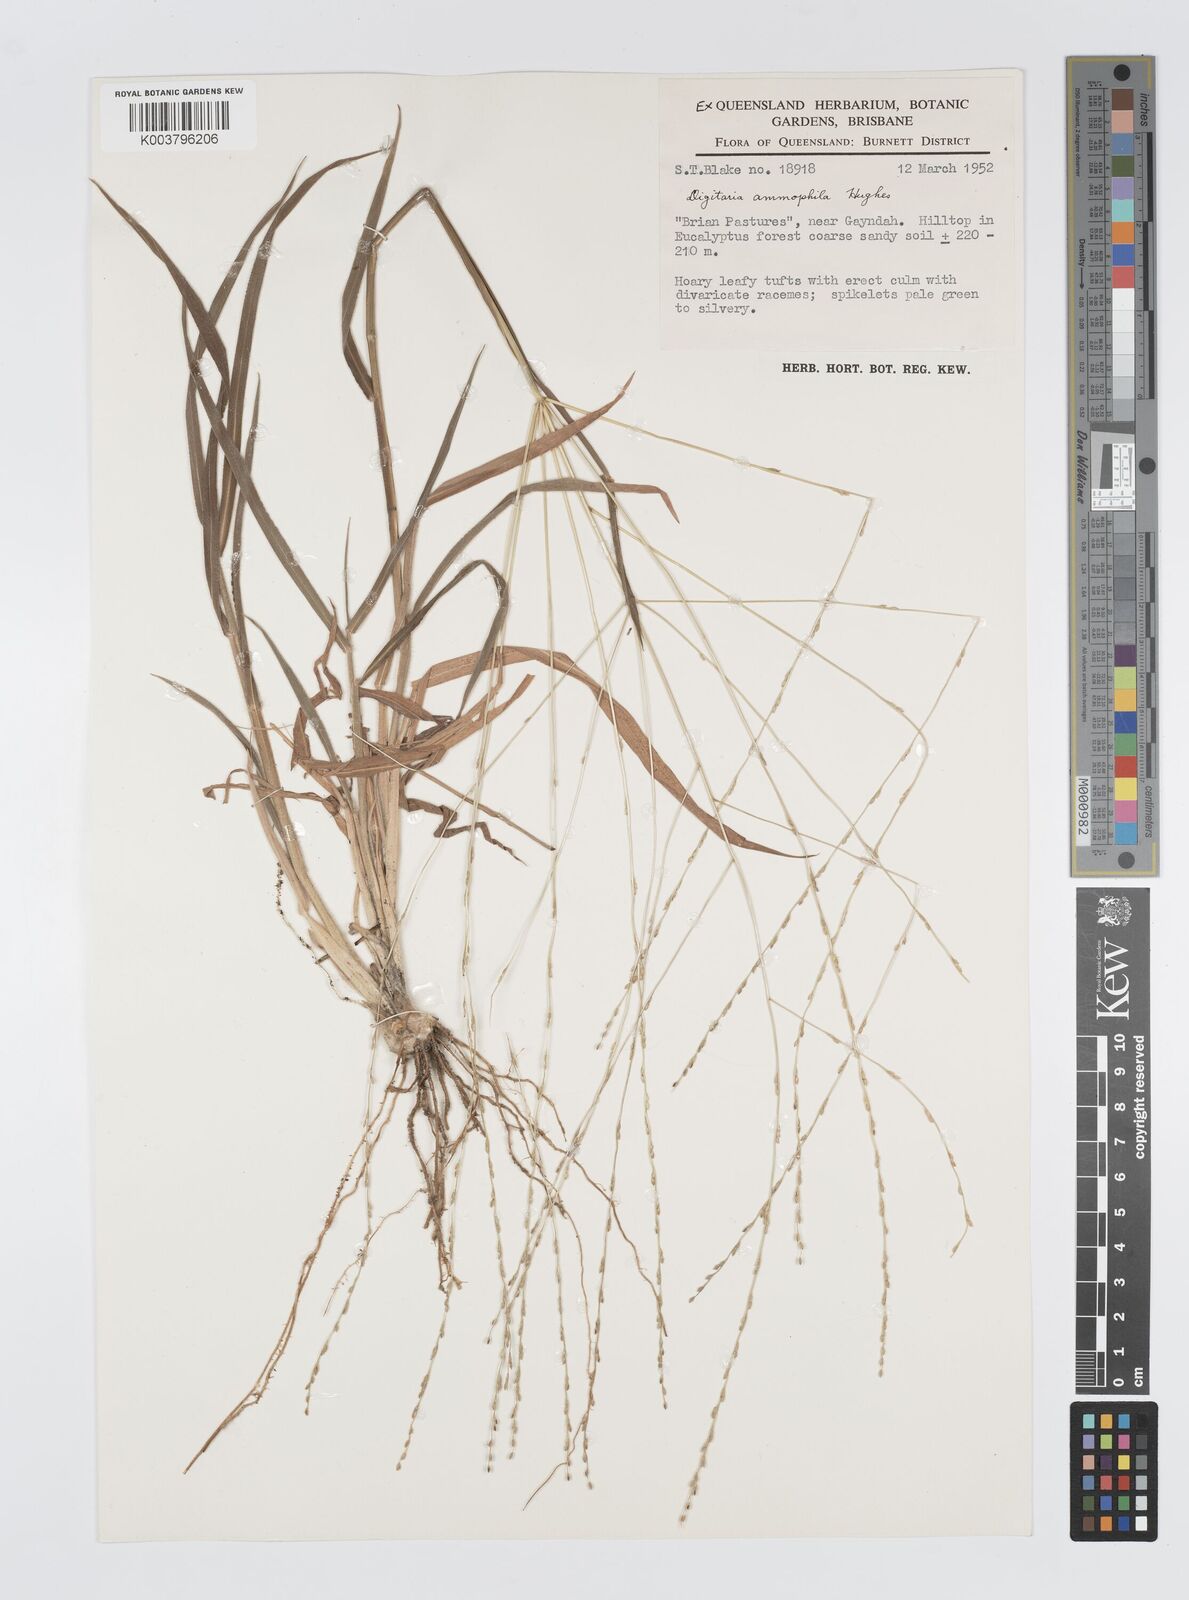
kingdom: Plantae
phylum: Tracheophyta
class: Liliopsida
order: Poales
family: Poaceae
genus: Digitaria
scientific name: Digitaria ammophila
